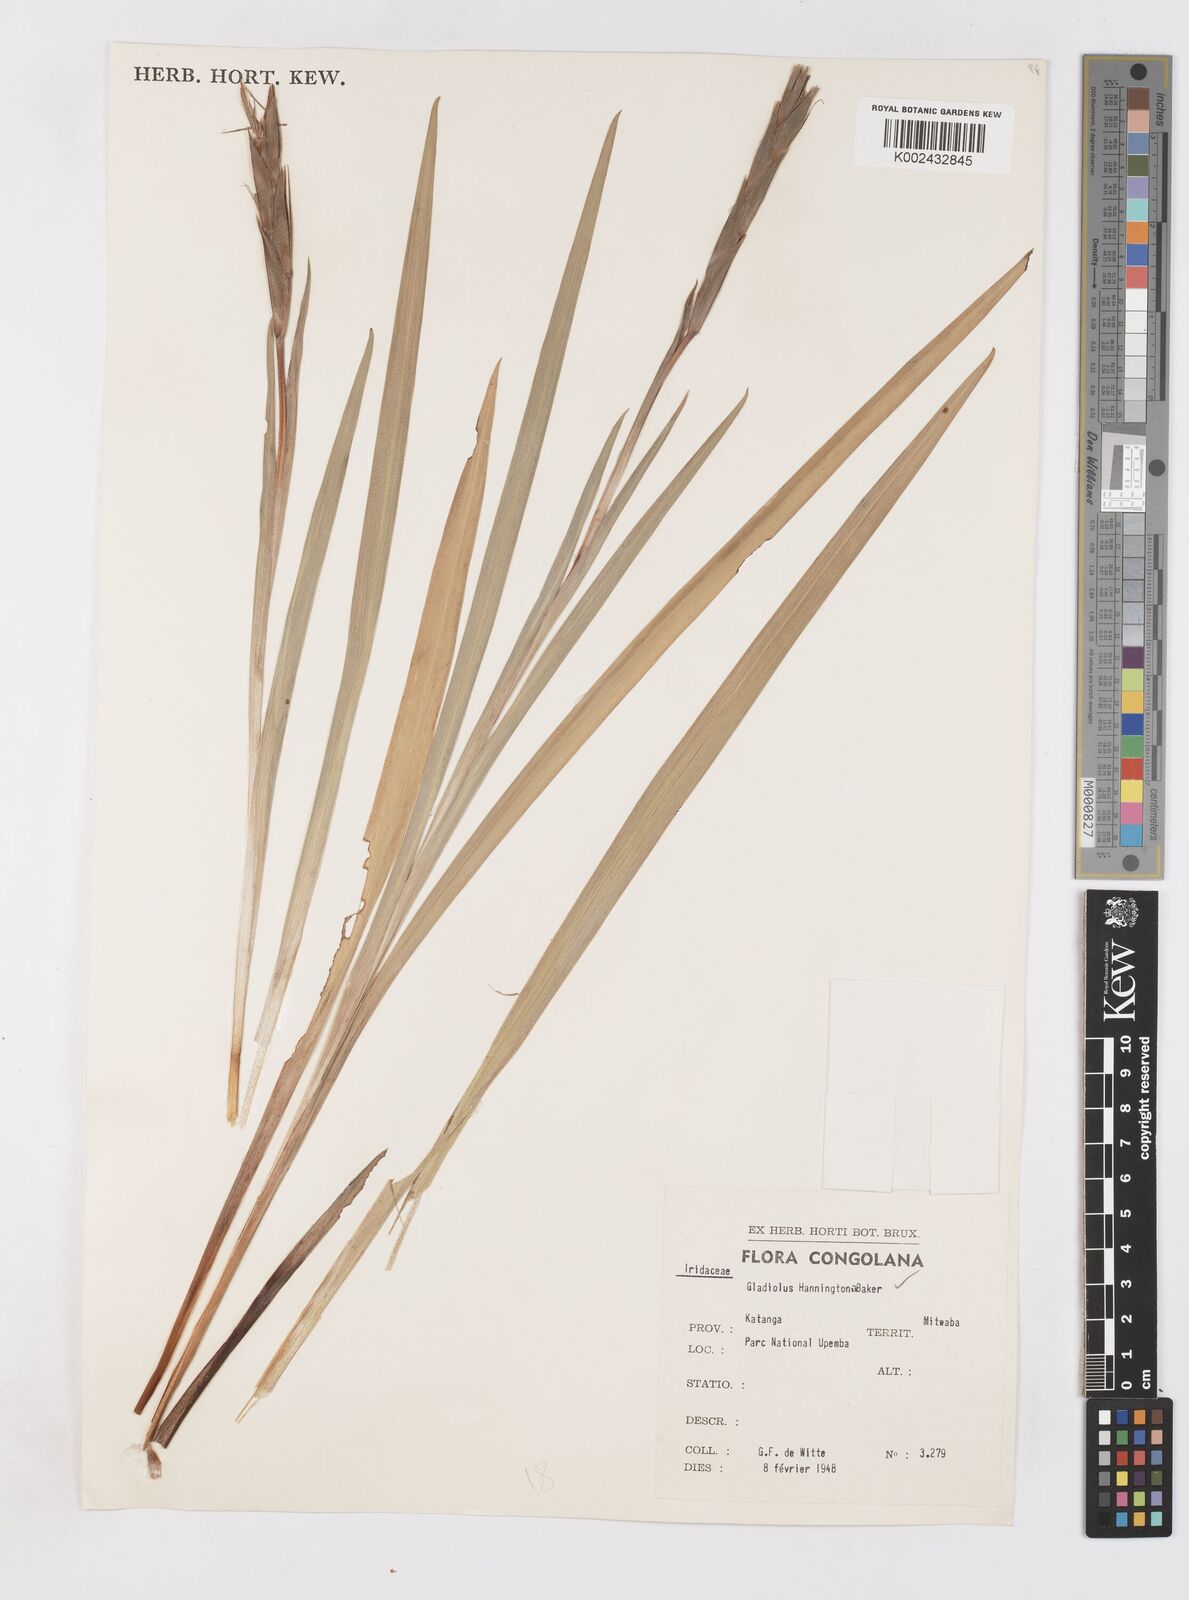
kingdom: Plantae
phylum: Tracheophyta
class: Liliopsida
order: Asparagales
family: Iridaceae
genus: Gladiolus
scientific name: Gladiolus gregarius
